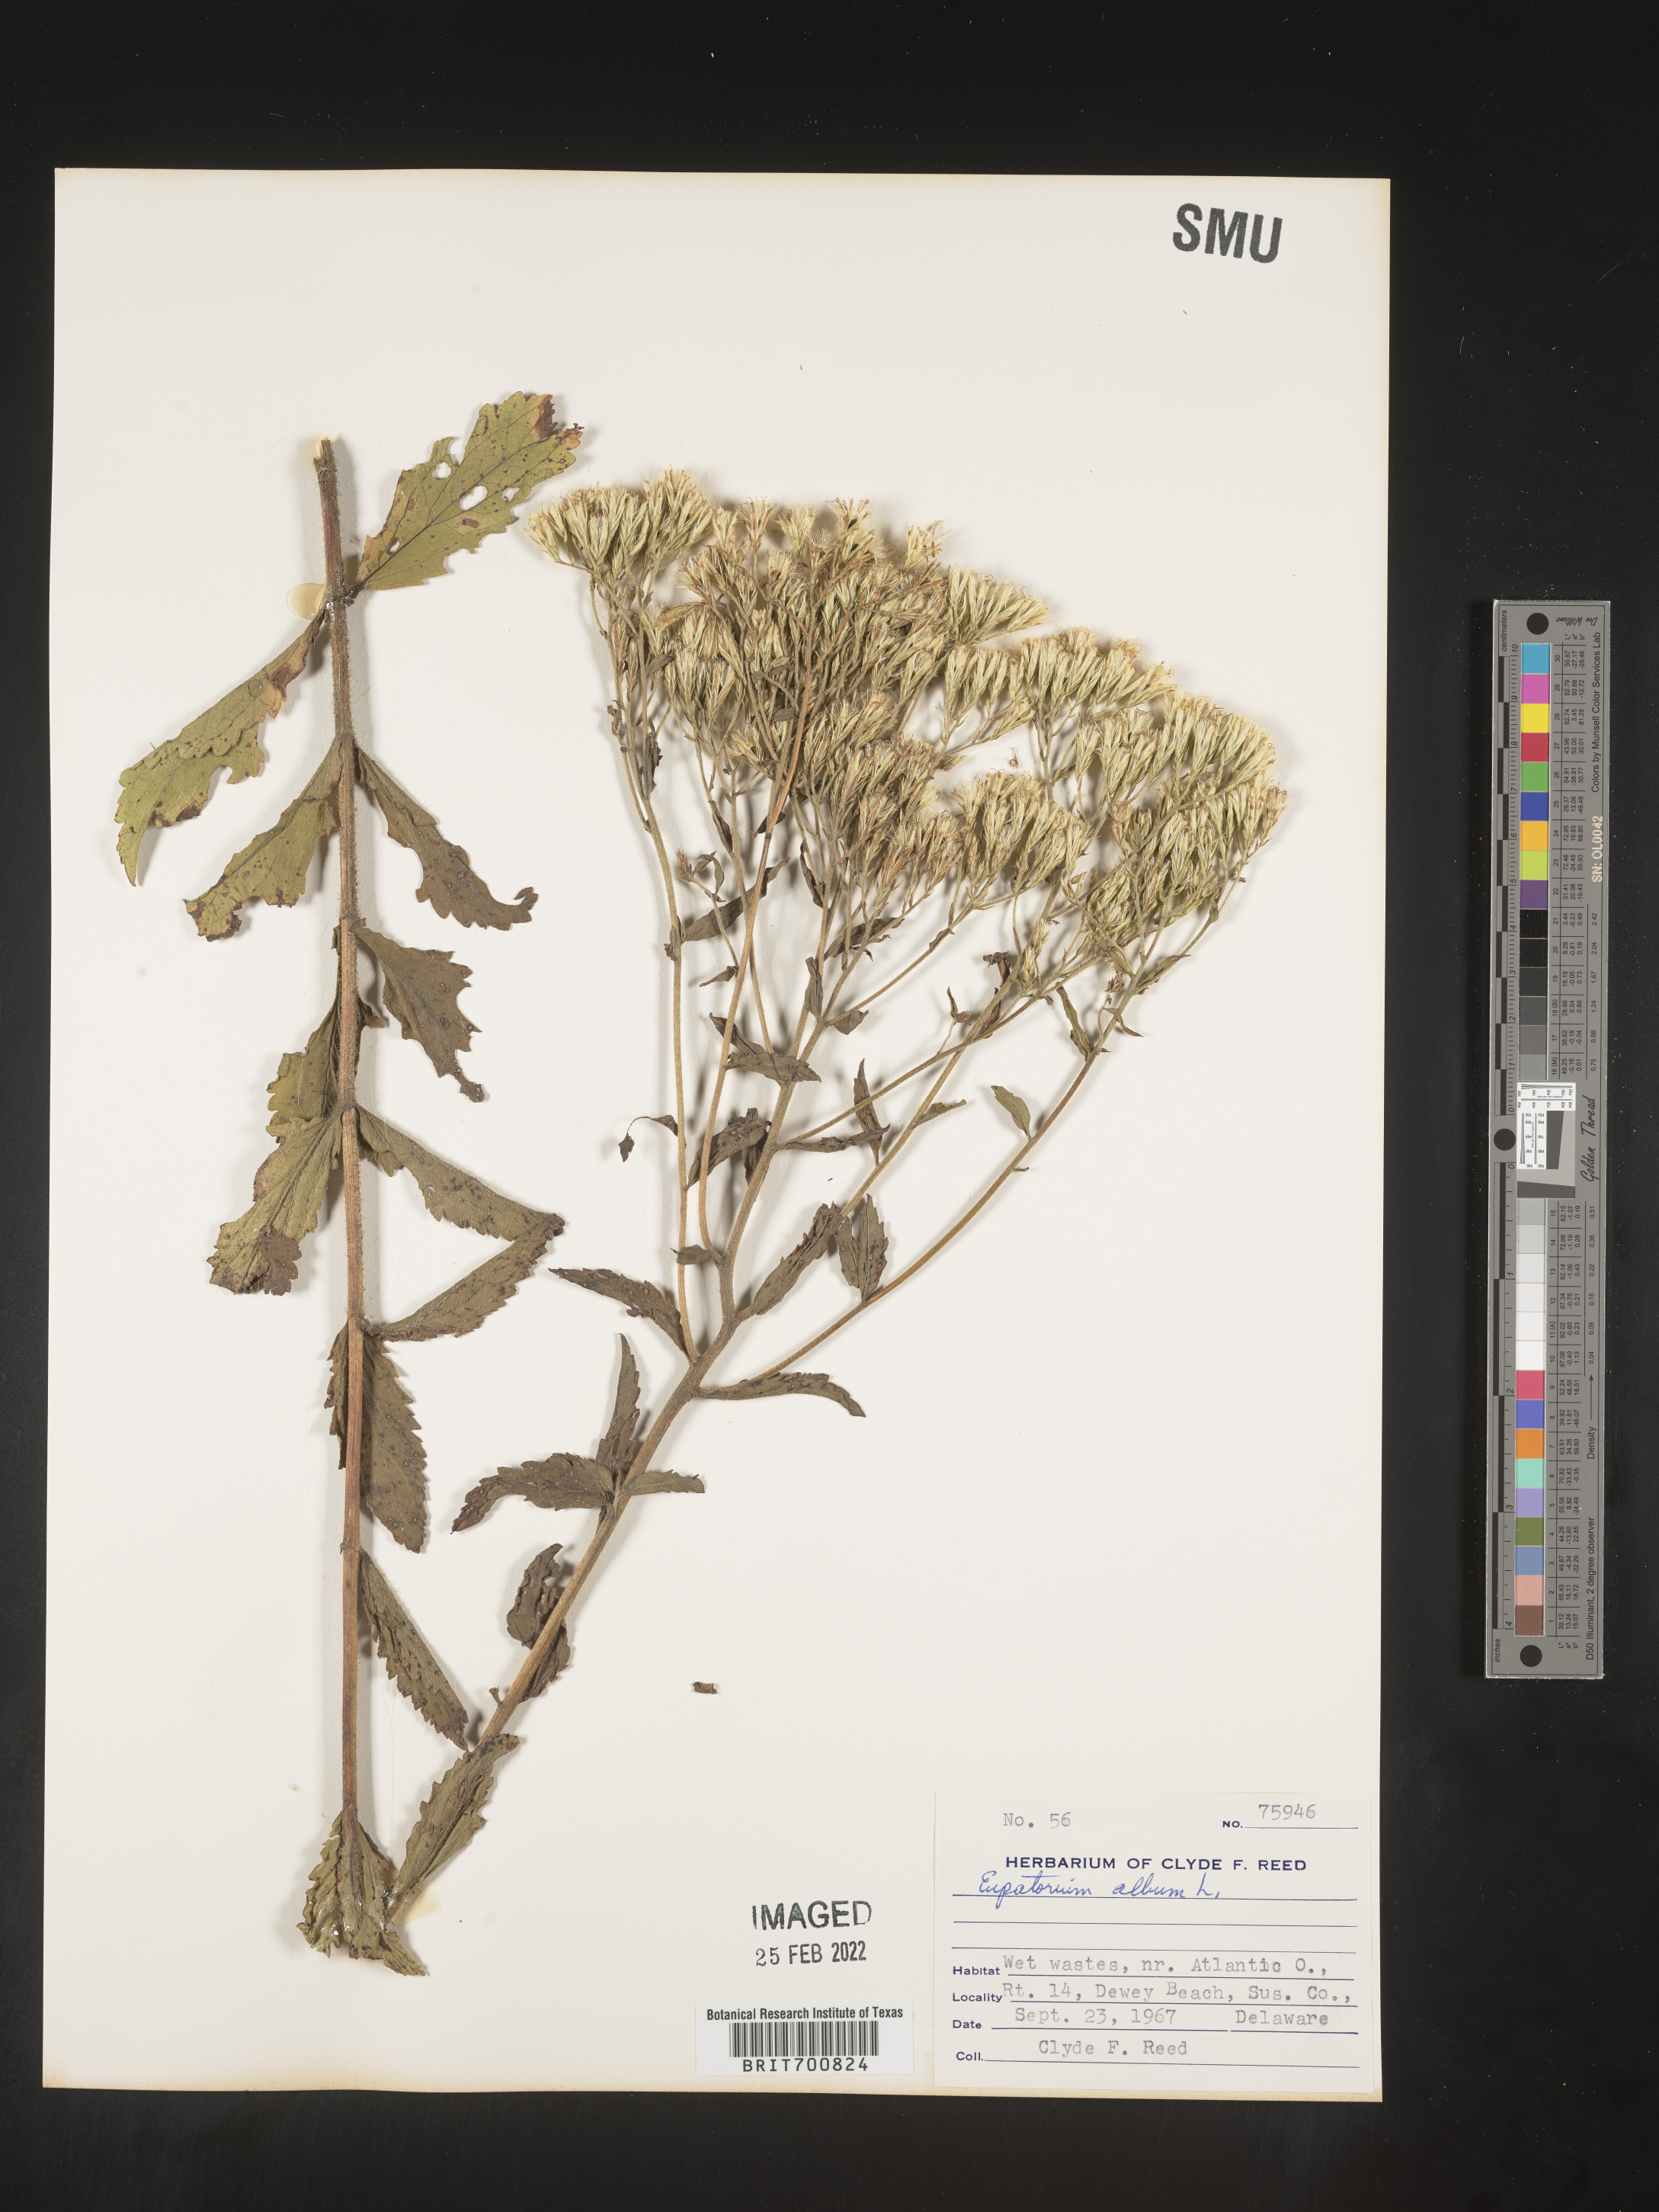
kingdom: Plantae
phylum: Tracheophyta
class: Magnoliopsida
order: Asterales
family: Asteraceae
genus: Eupatorium
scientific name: Eupatorium album
